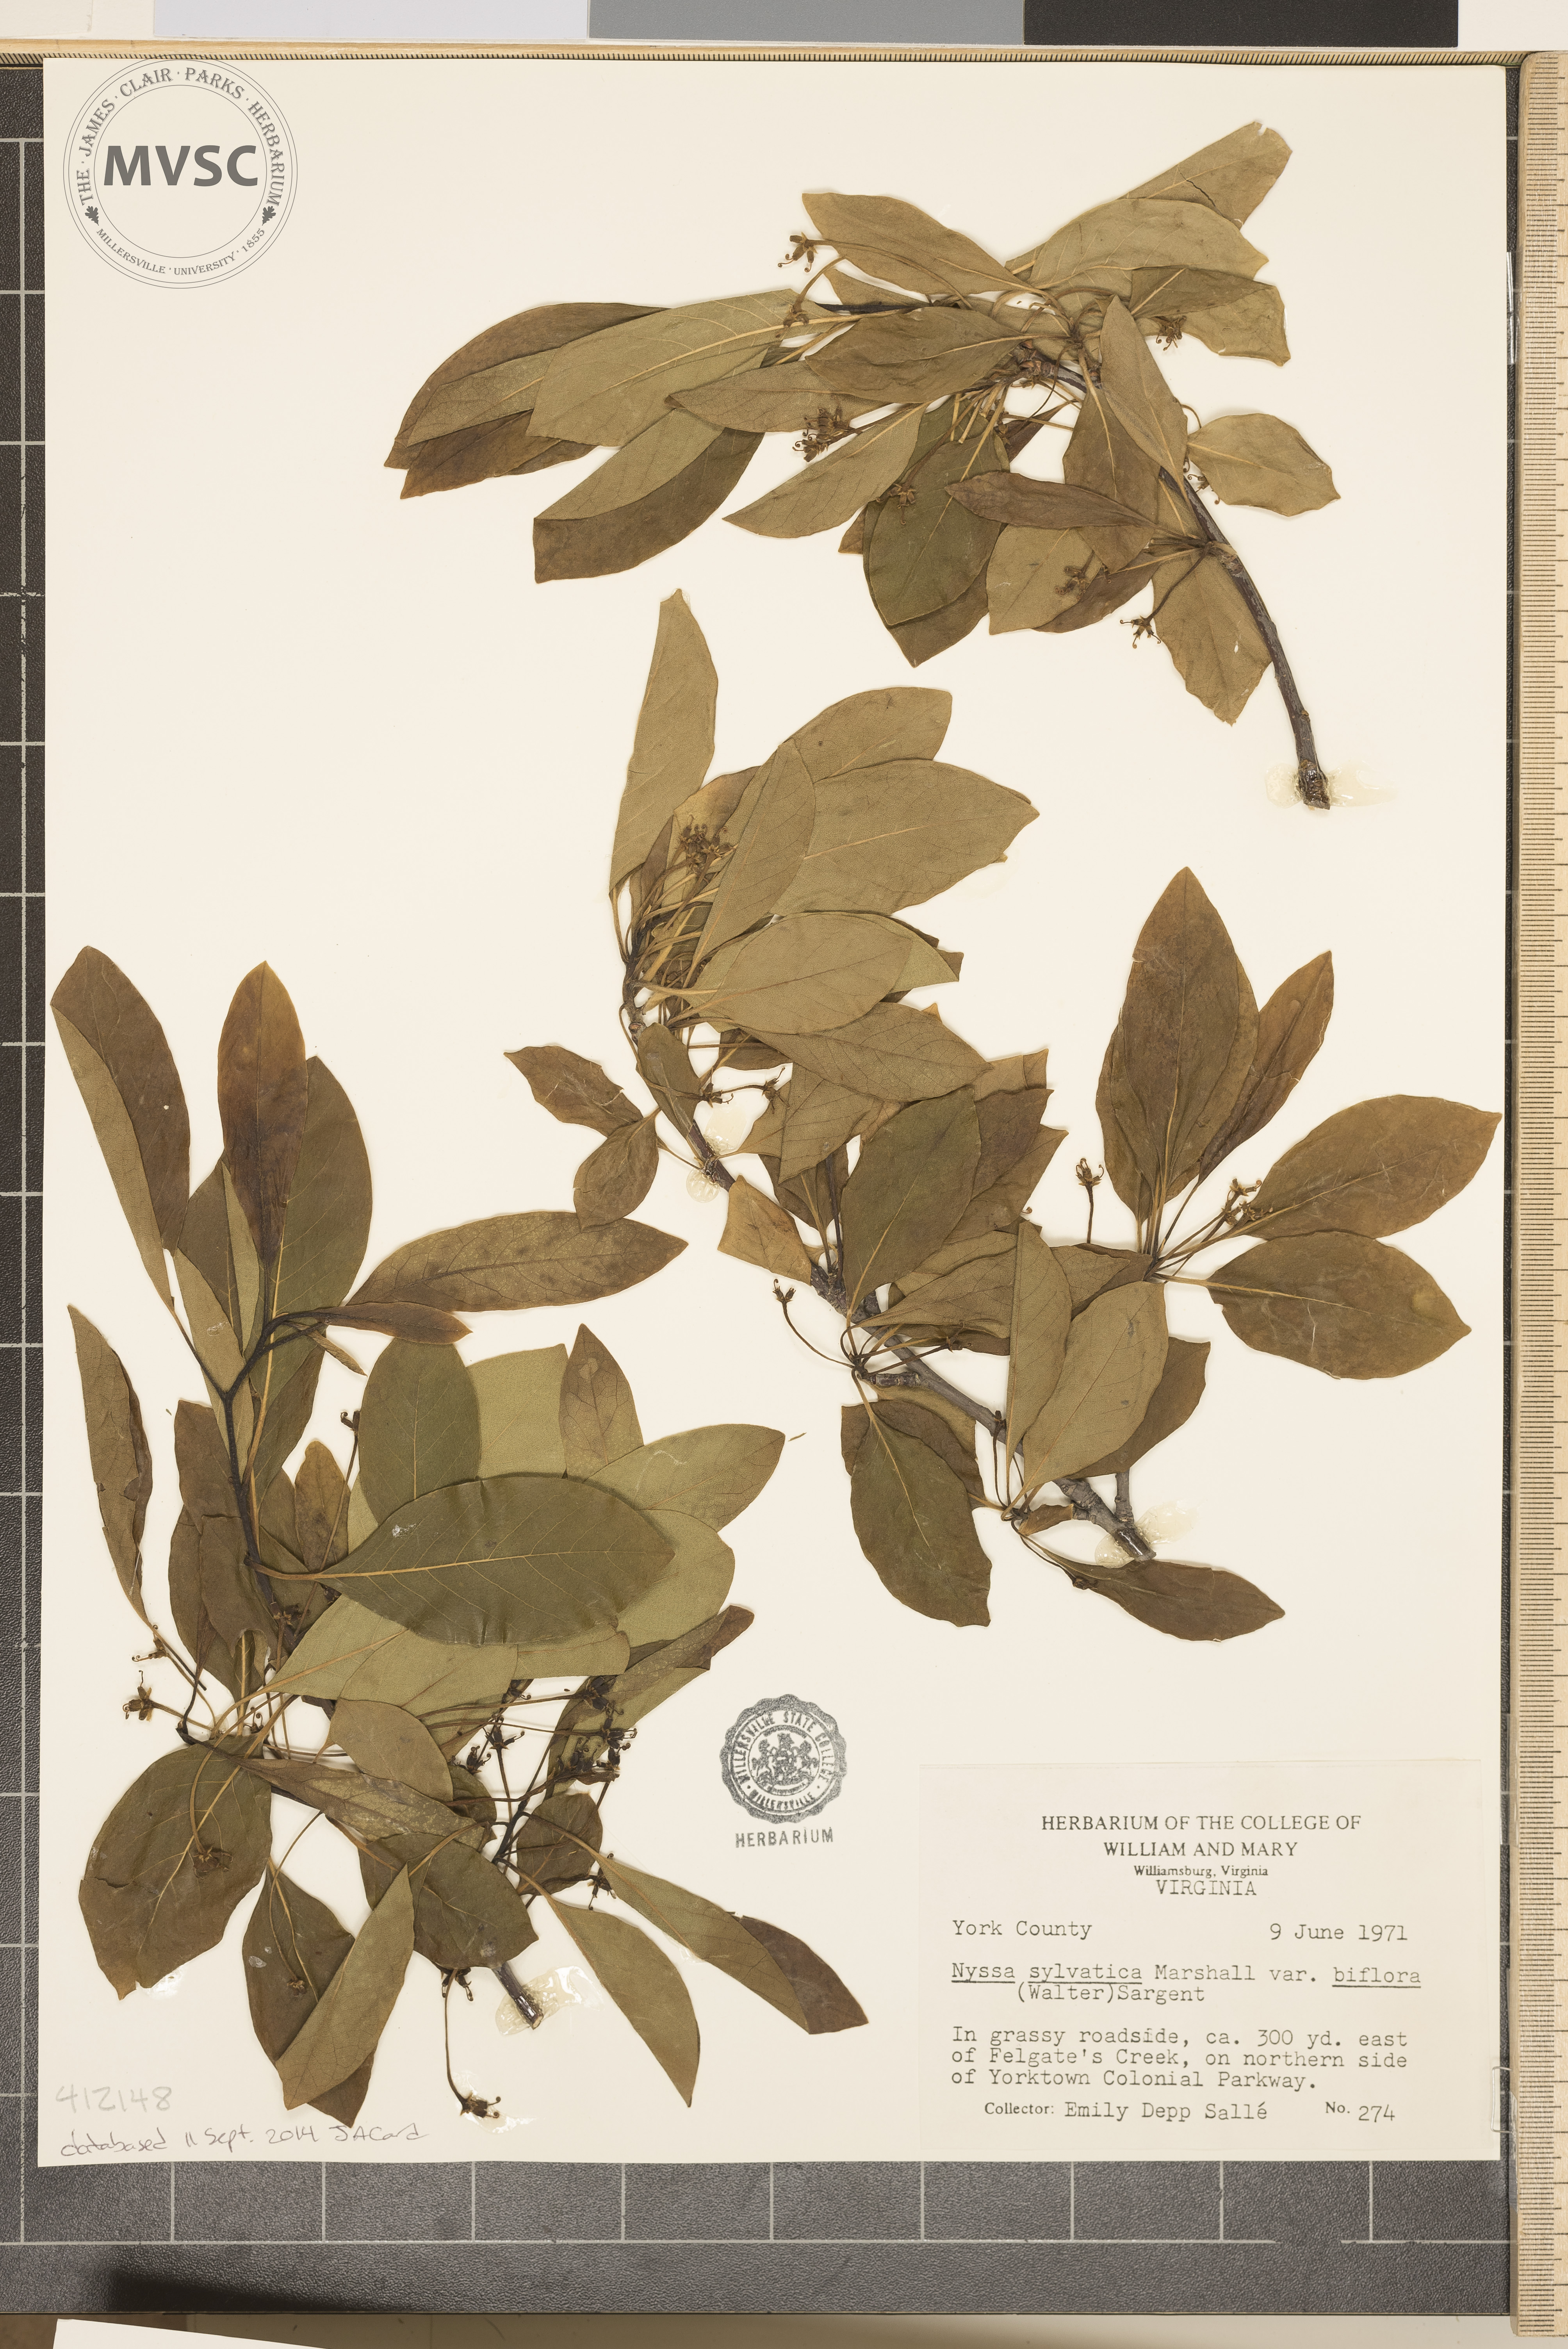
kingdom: Plantae
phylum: Tracheophyta
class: Magnoliopsida
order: Cornales
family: Nyssaceae
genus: Nyssa
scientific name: Nyssa sylvatica
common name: Black tupelo
